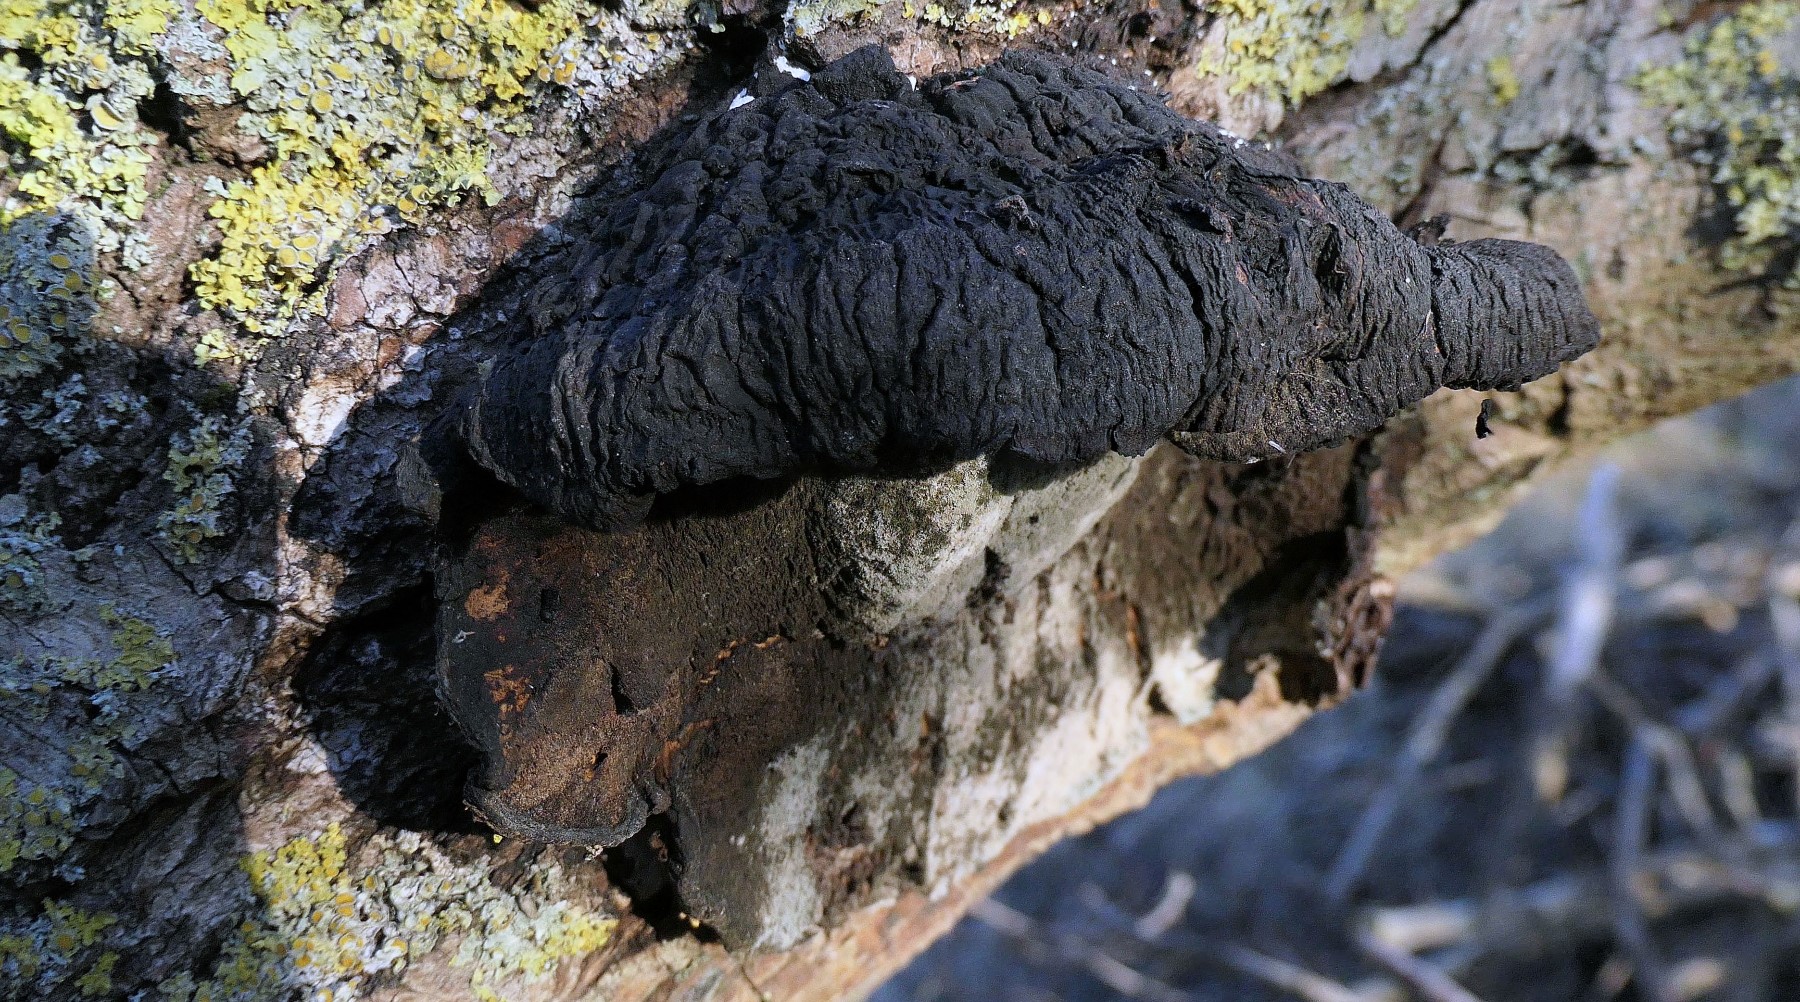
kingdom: Fungi
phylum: Basidiomycota
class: Agaricomycetes
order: Polyporales
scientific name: Polyporales
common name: poresvampordenen
